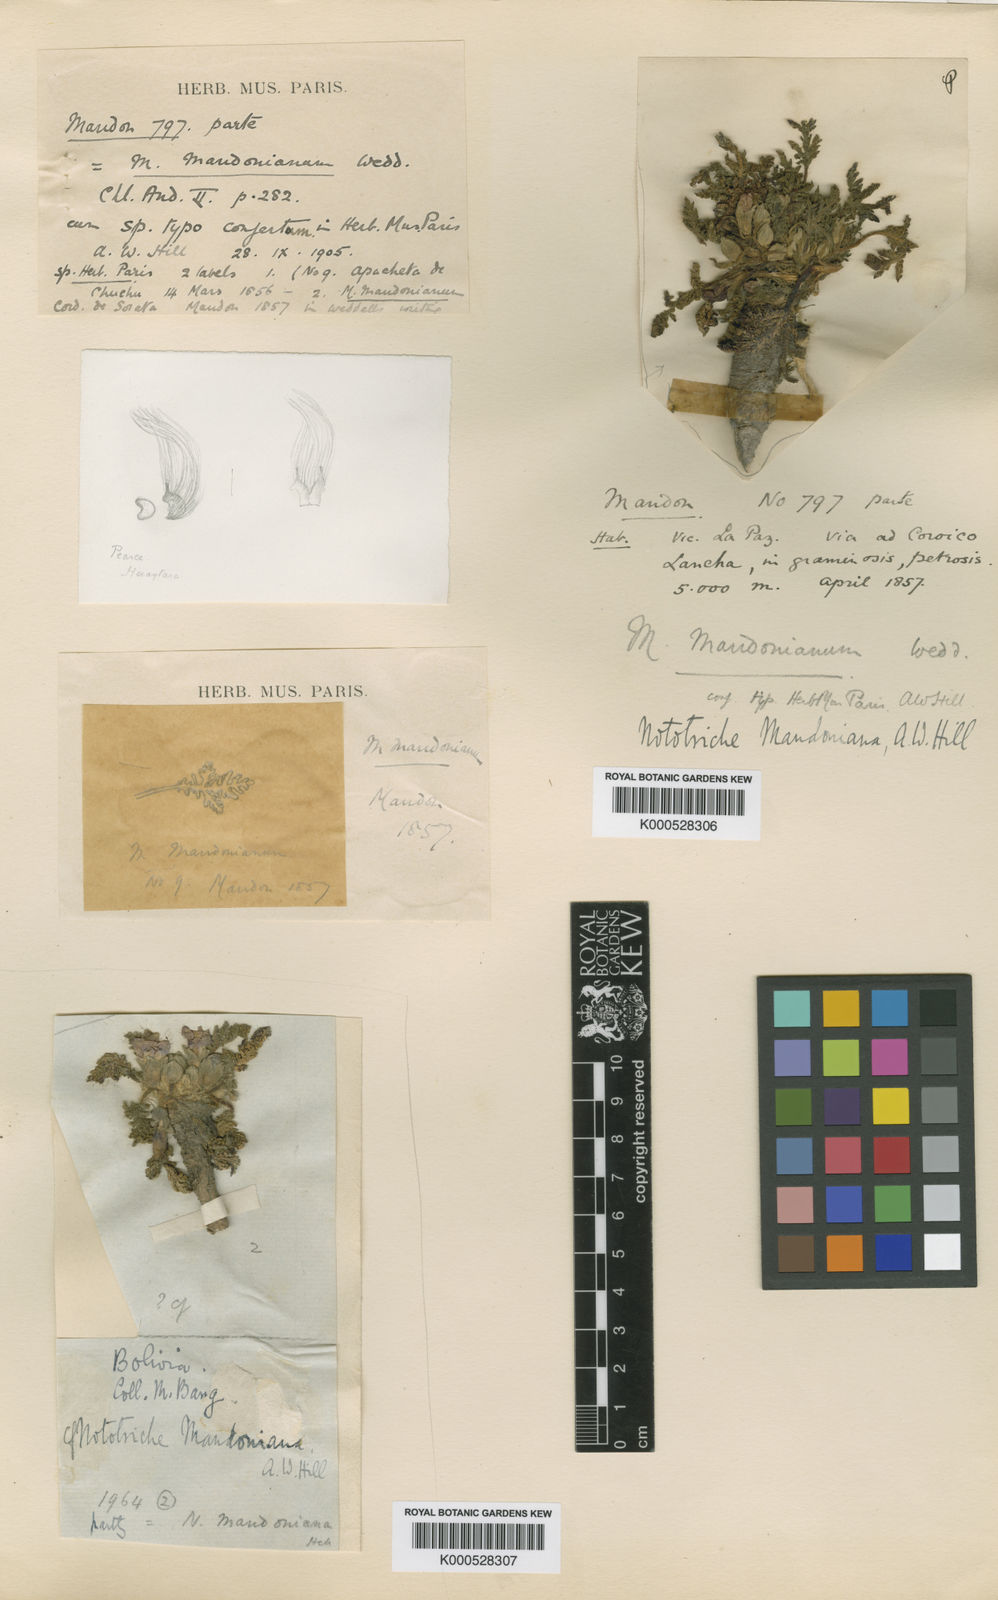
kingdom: Plantae
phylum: Tracheophyta
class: Magnoliopsida
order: Malvales
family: Malvaceae
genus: Nototriche
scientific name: Nototriche mandoniana
